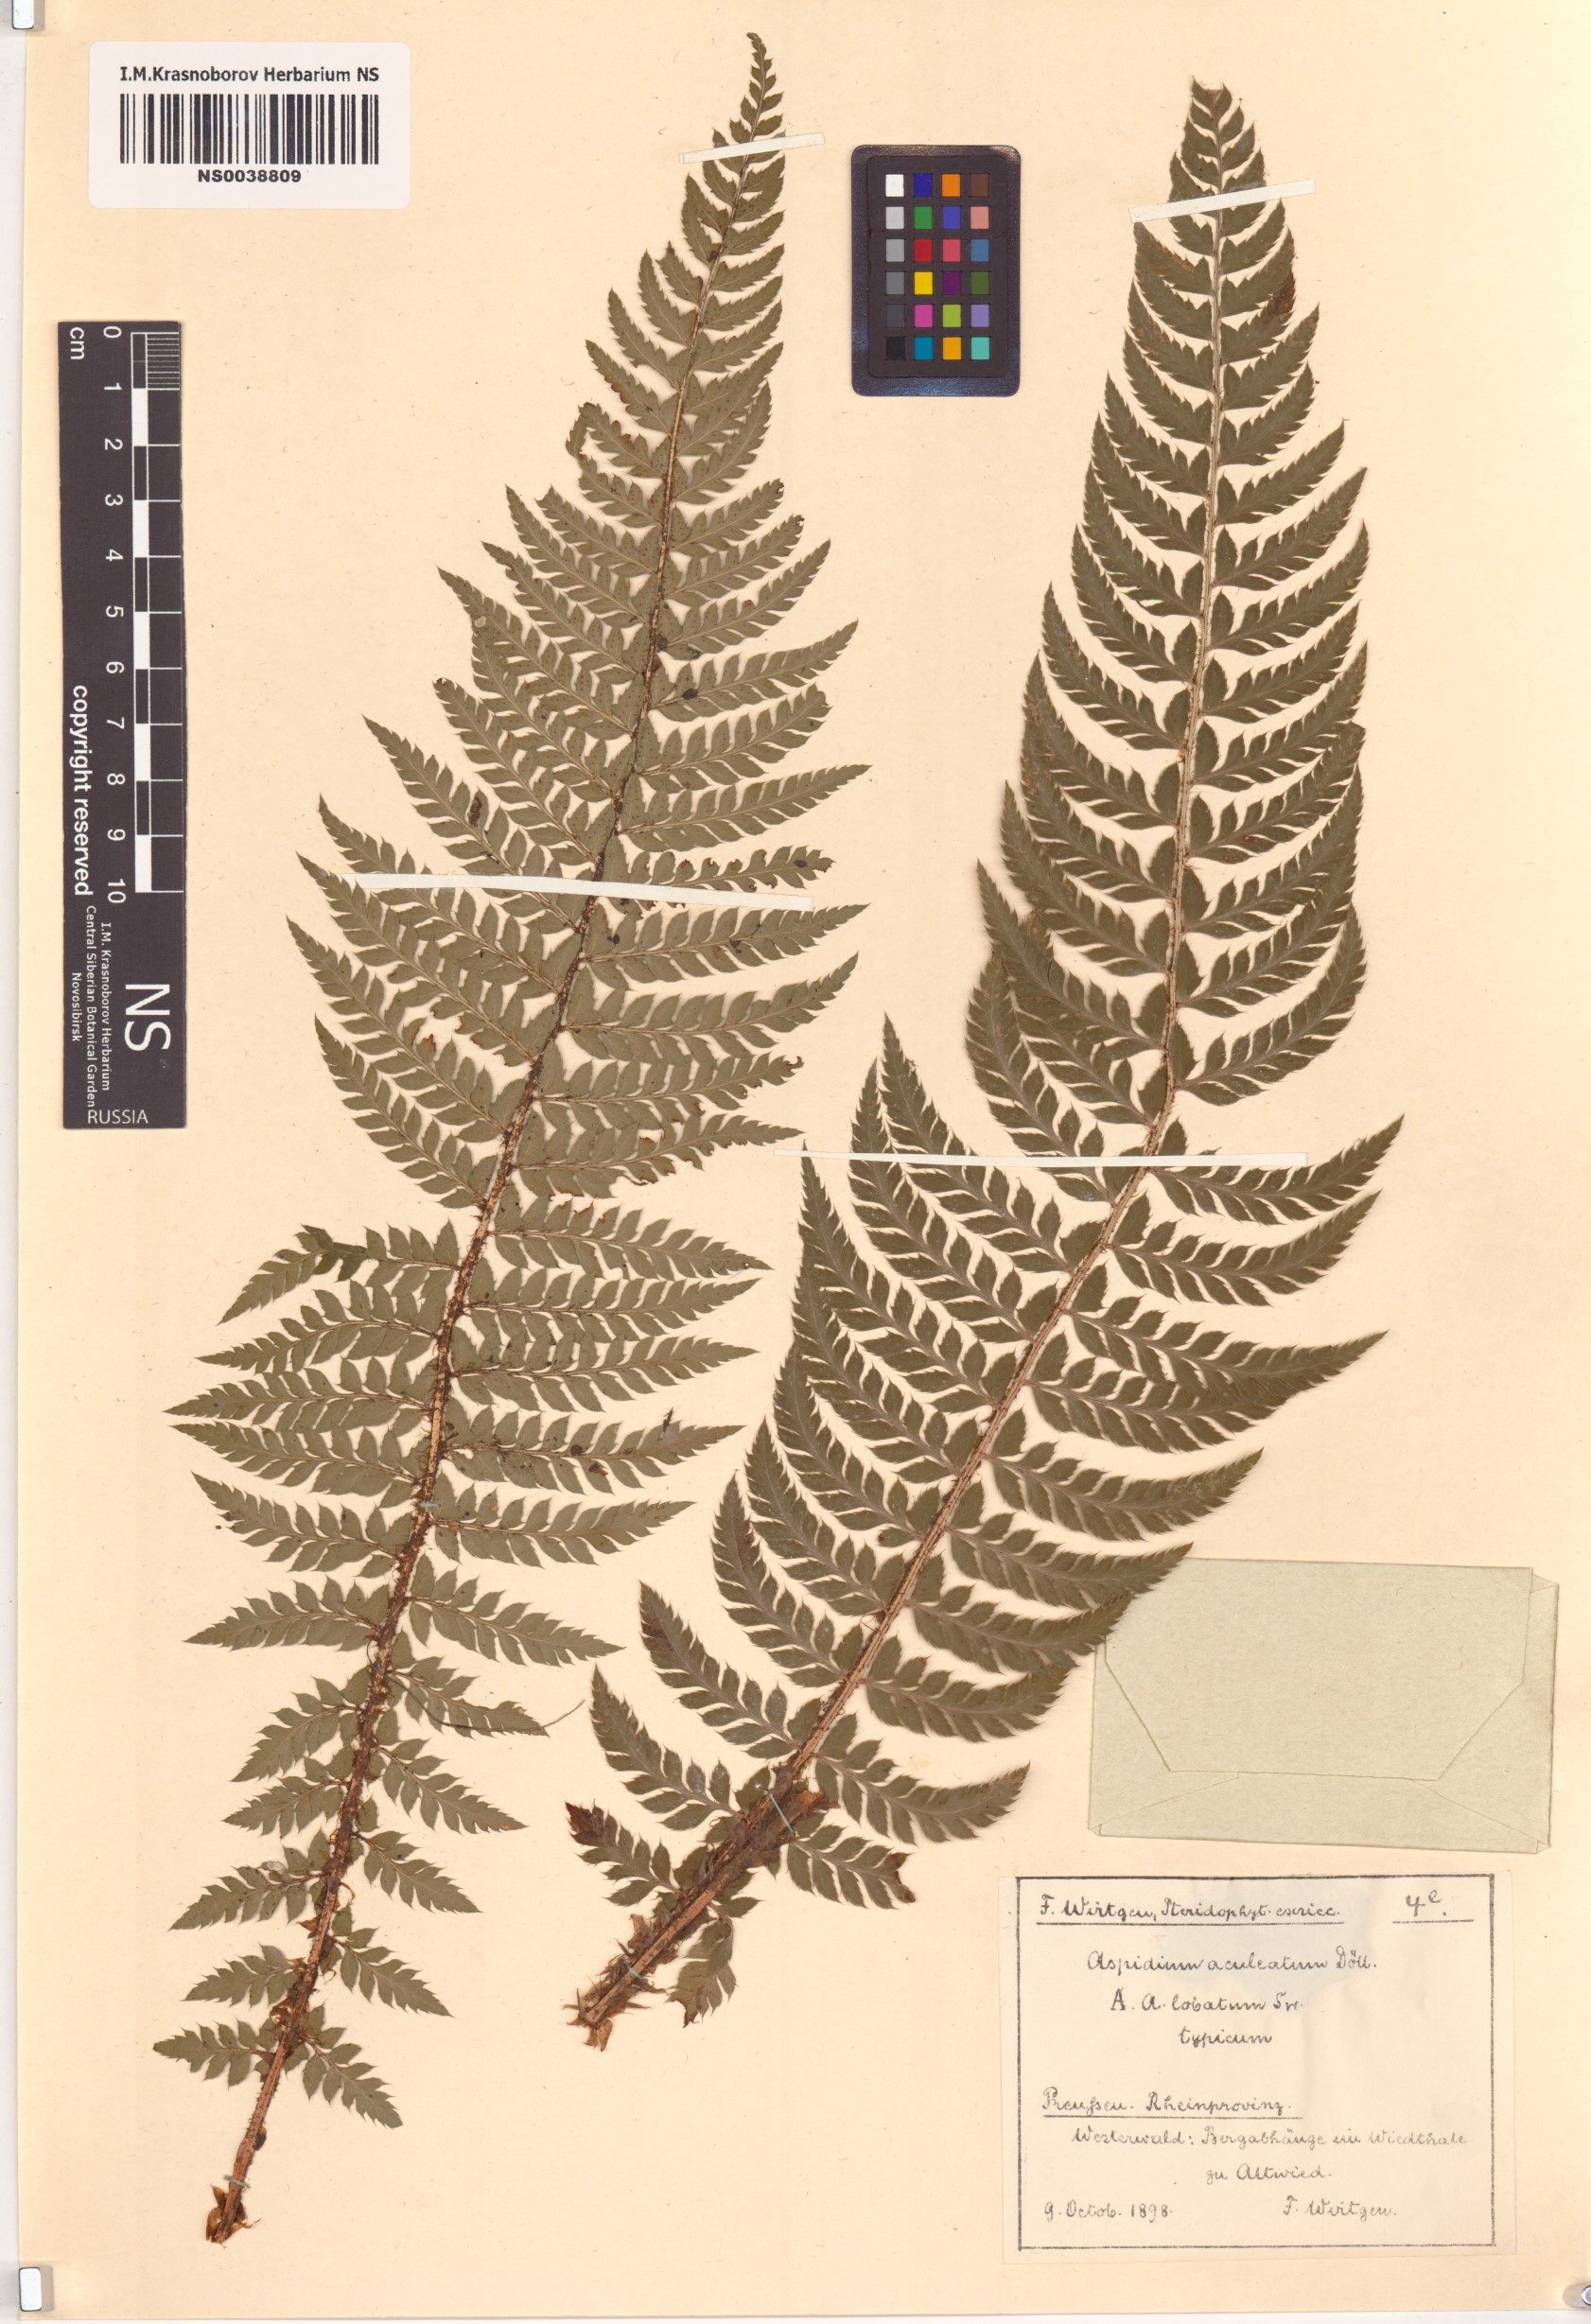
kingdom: Plantae
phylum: Tracheophyta
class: Polypodiopsida
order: Polypodiales
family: Dryopteridaceae
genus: Polystichum
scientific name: Polystichum aculeatum
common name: Hard shield-fern
